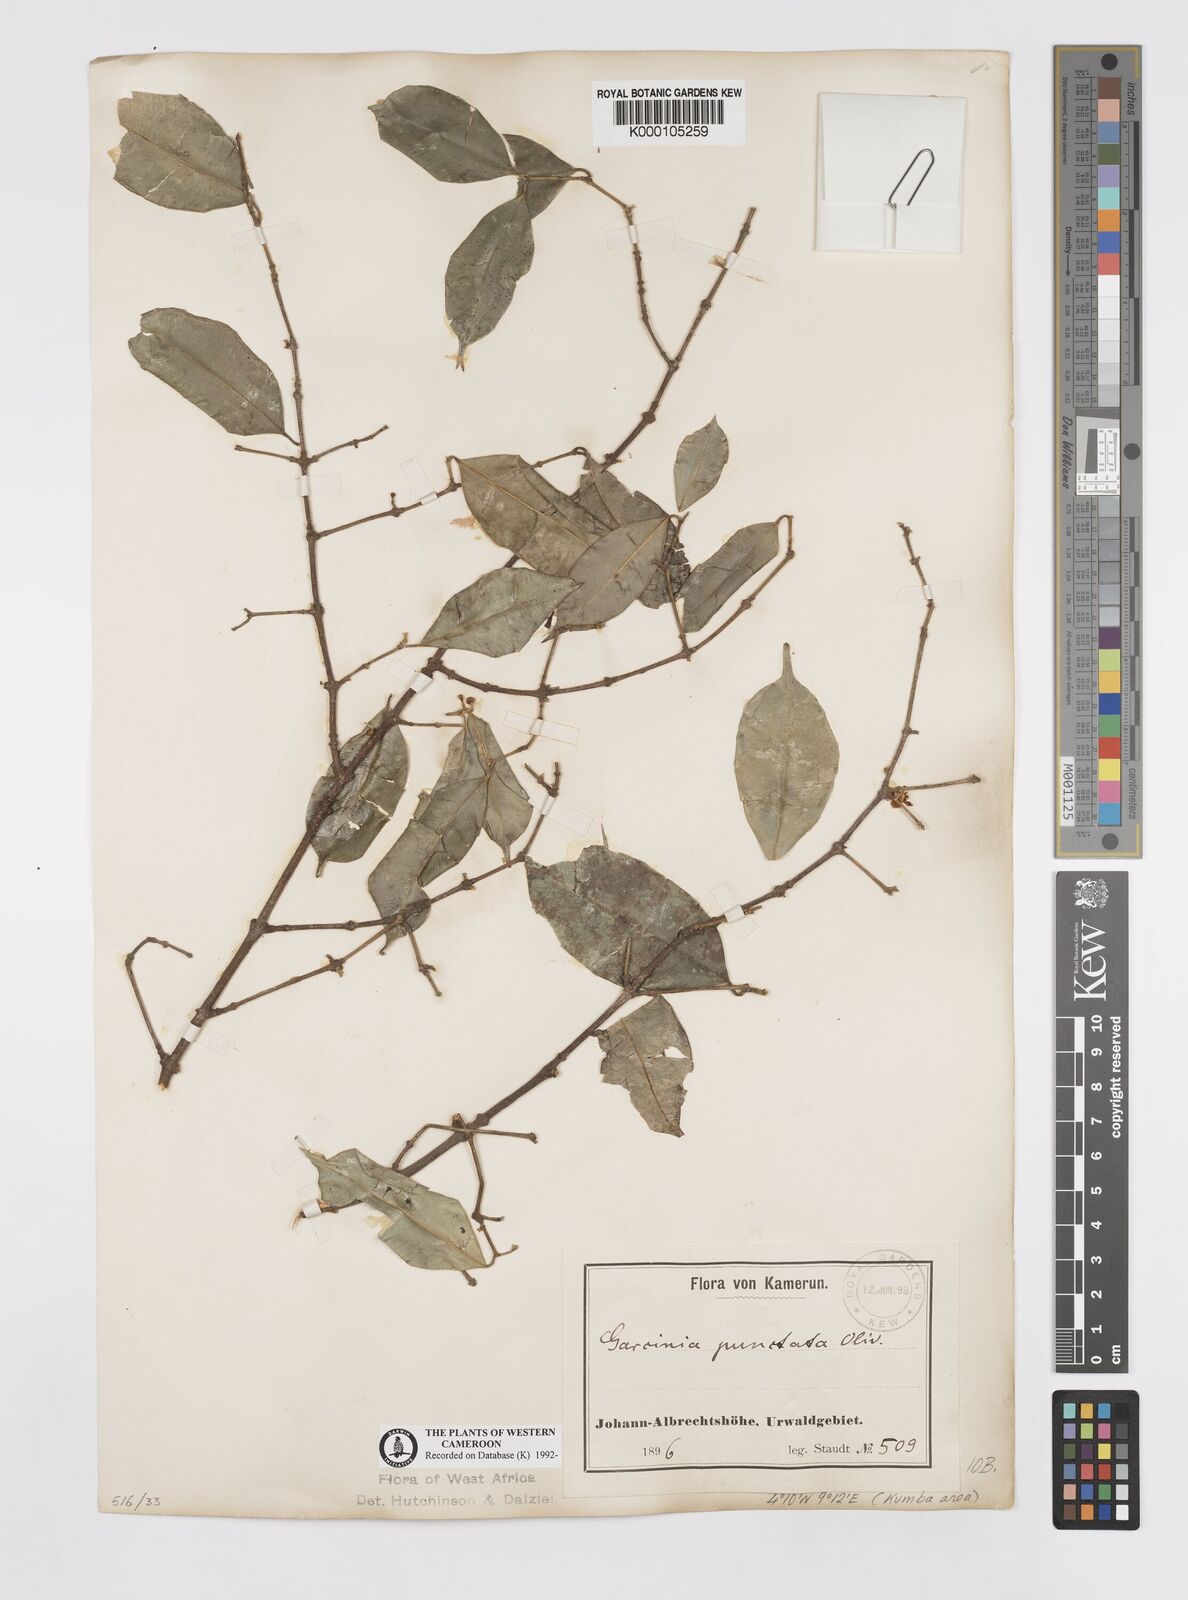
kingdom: Plantae
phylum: Tracheophyta
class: Magnoliopsida
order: Malpighiales
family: Clusiaceae
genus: Garcinia
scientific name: Garcinia punctata
